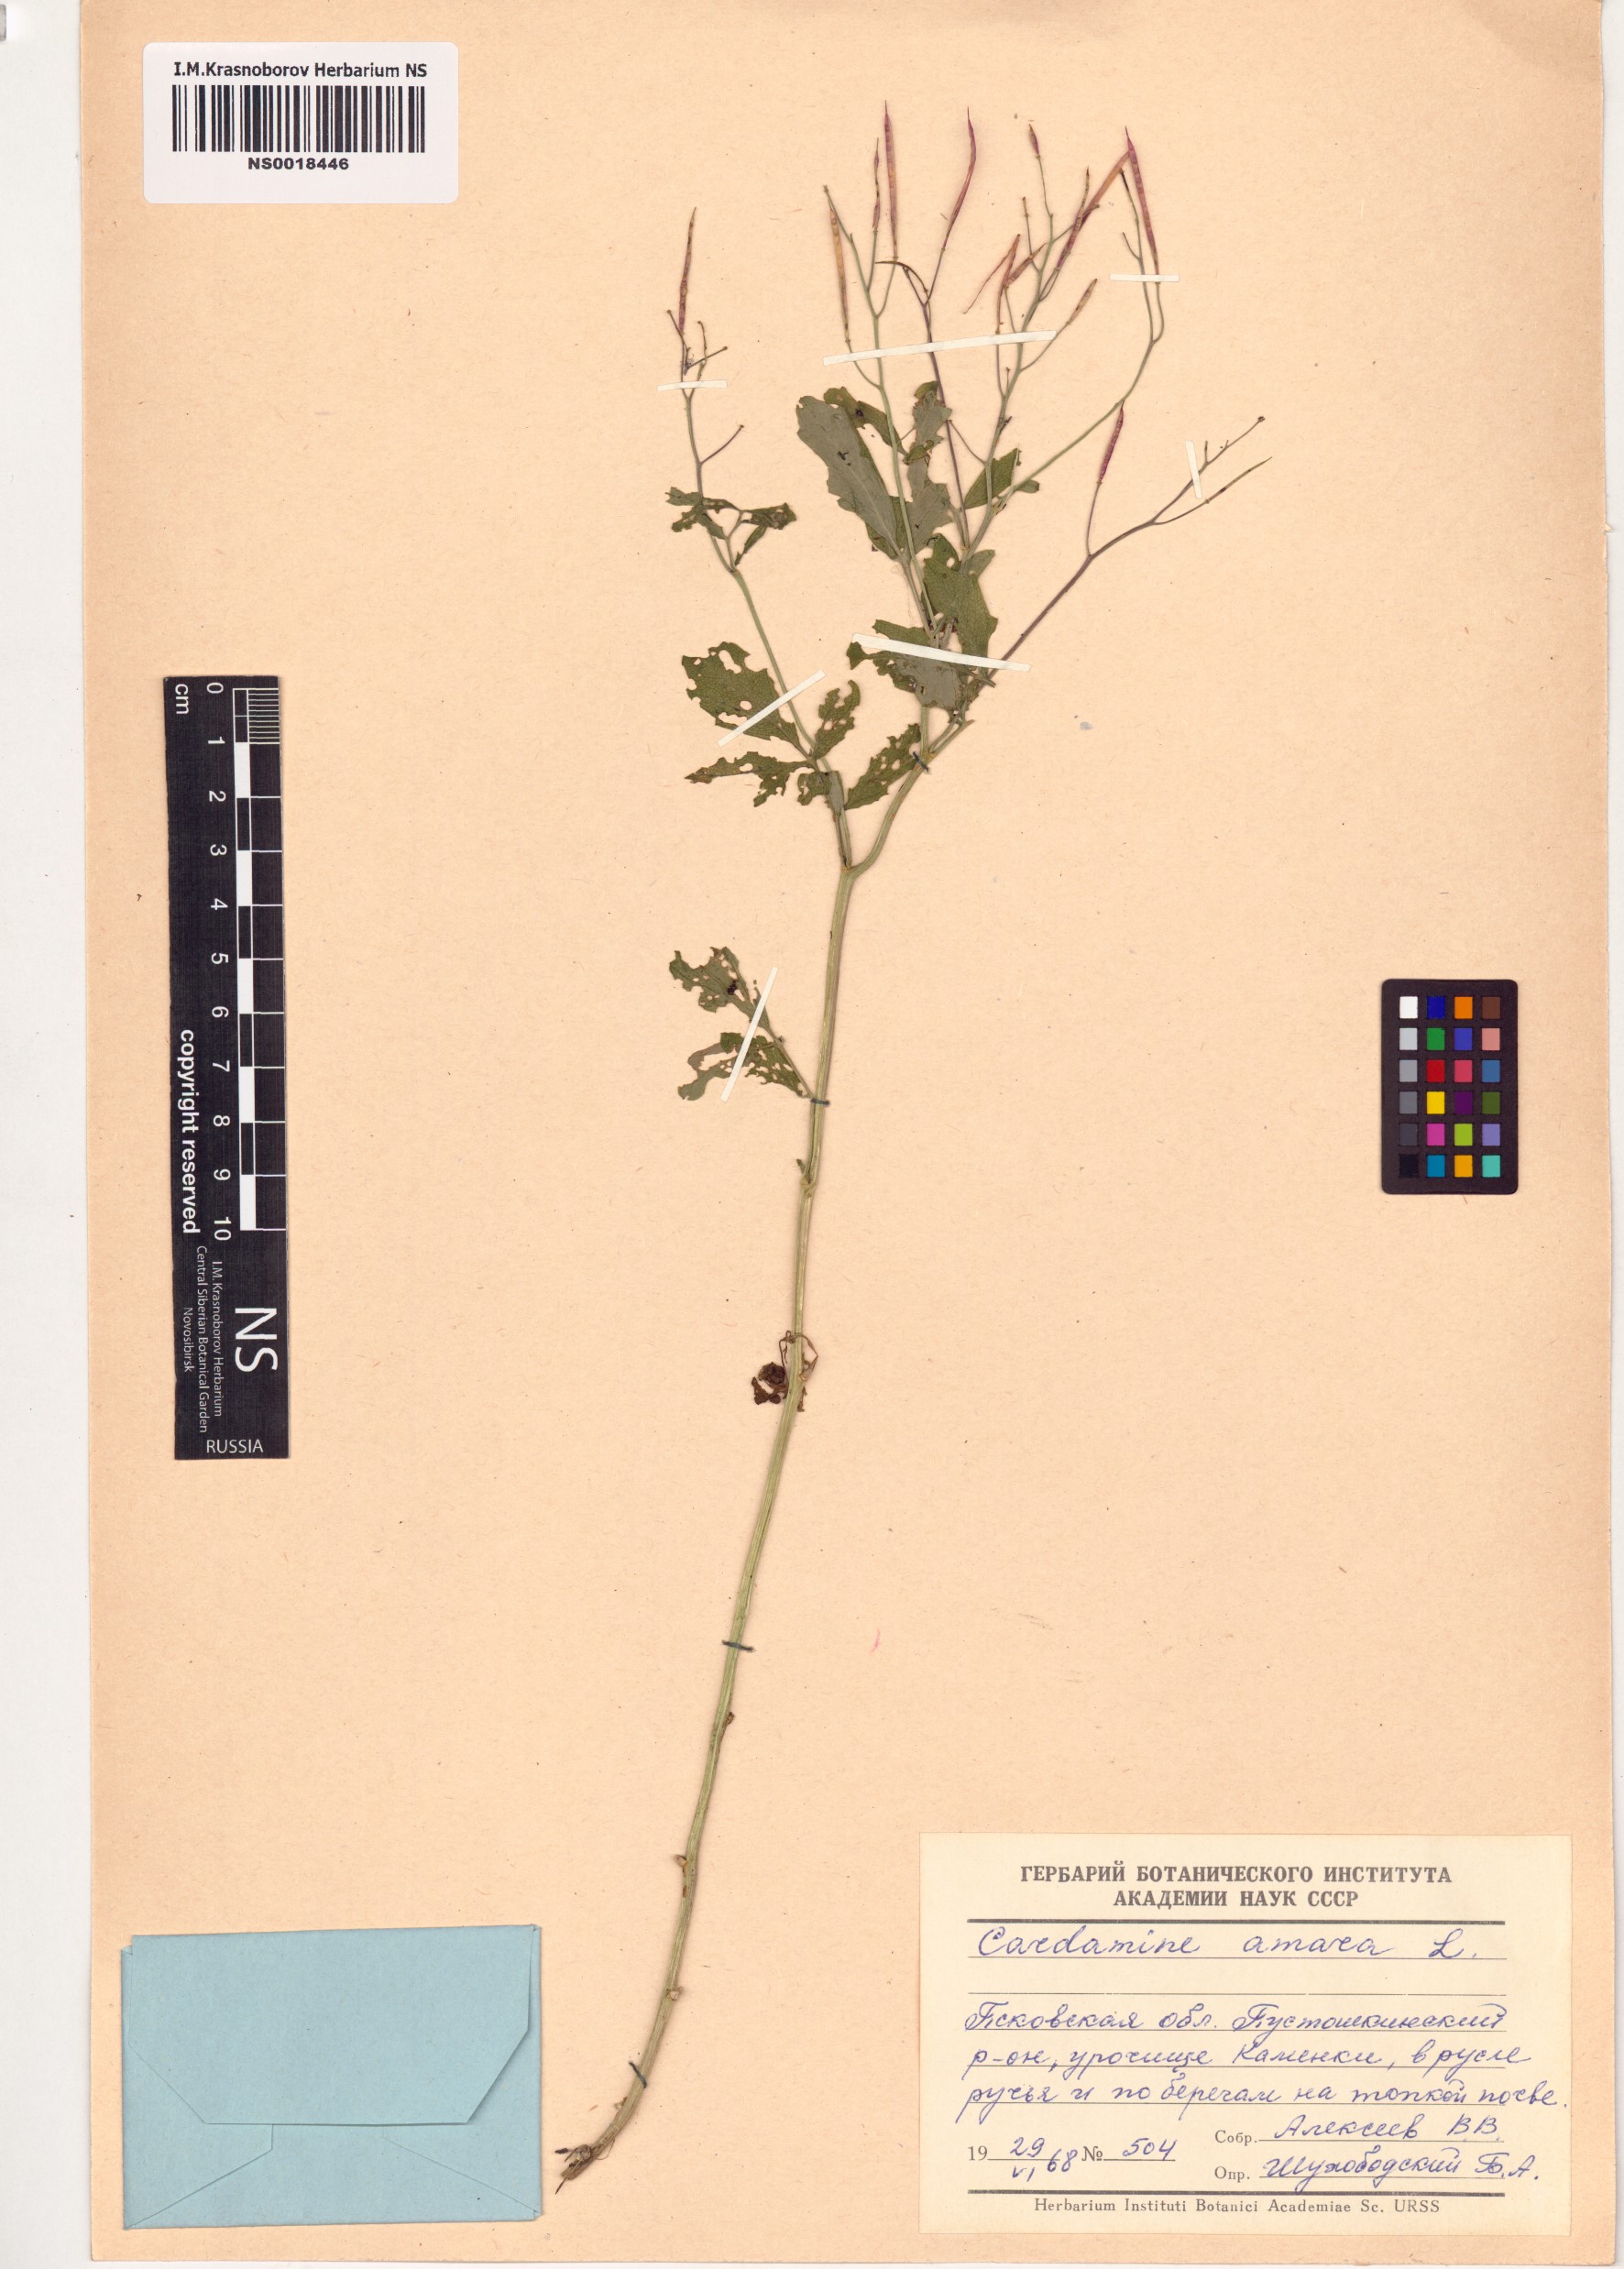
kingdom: Plantae
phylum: Tracheophyta
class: Magnoliopsida
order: Brassicales
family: Brassicaceae
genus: Cardamine
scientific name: Cardamine amara
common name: Large bitter-cress
